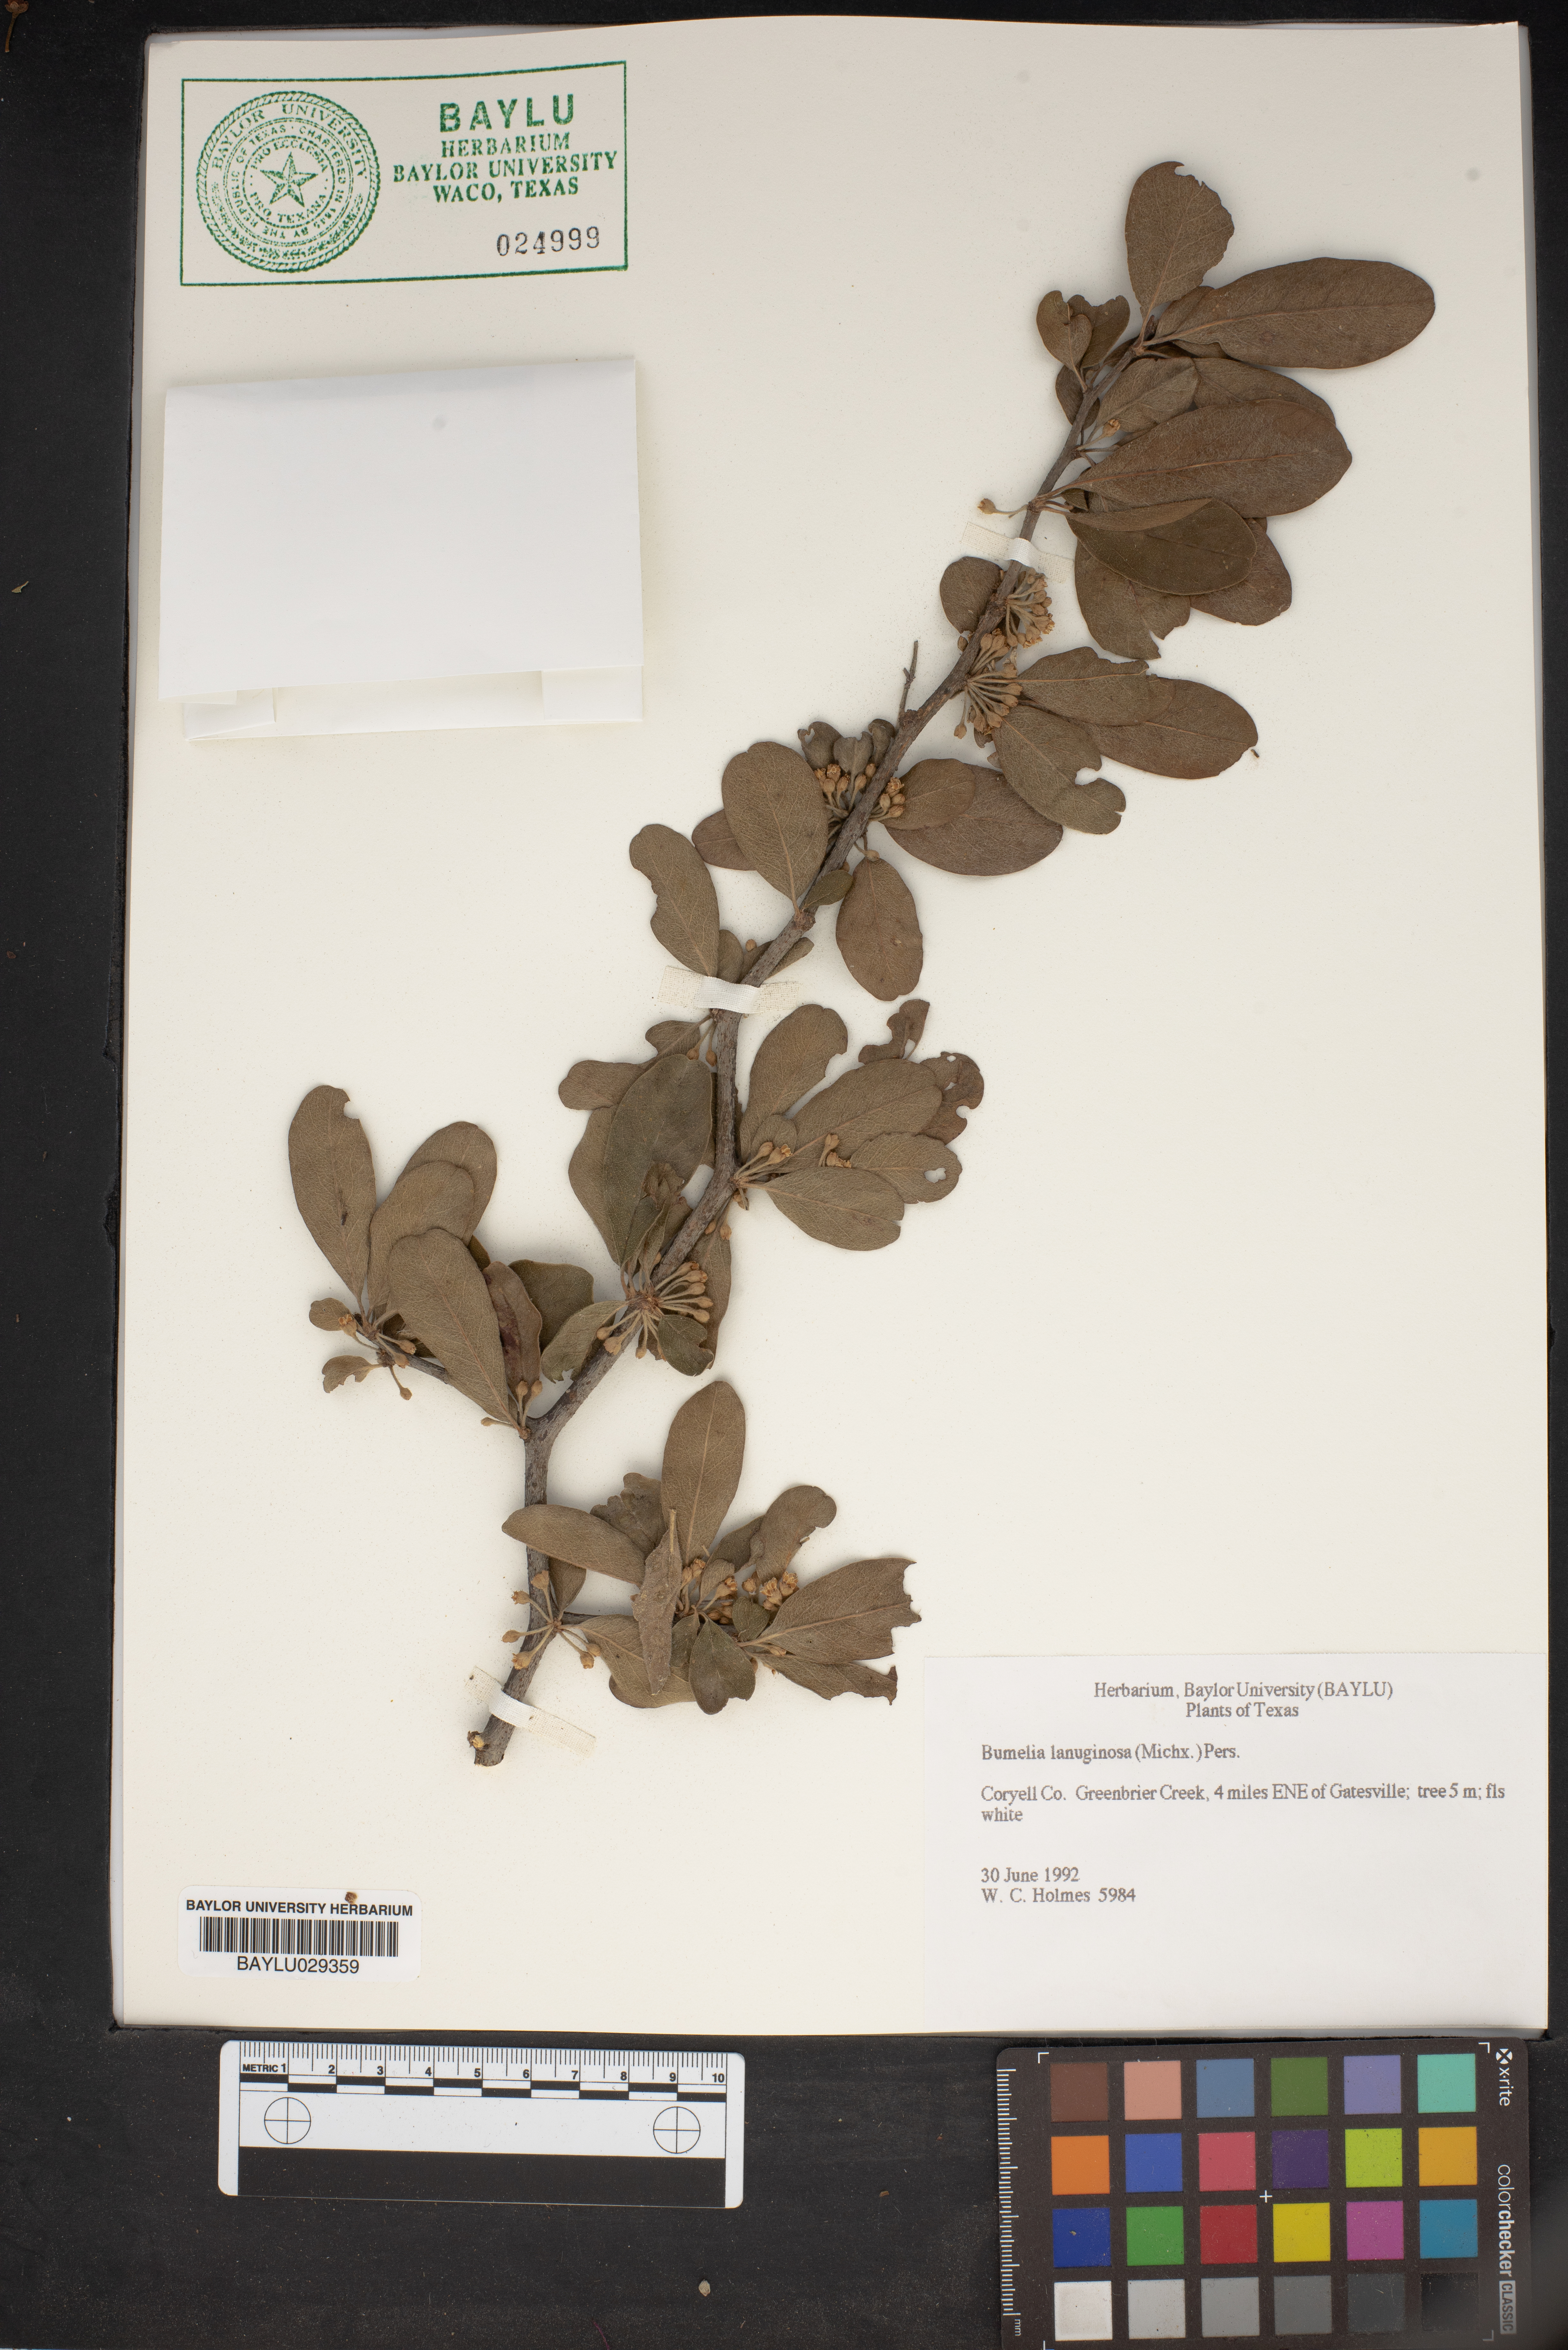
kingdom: Plantae
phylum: Tracheophyta
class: Magnoliopsida
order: Ericales
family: Sapotaceae
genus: Sideroxylon
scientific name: Sideroxylon lanuginosum
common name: Chittamwood
